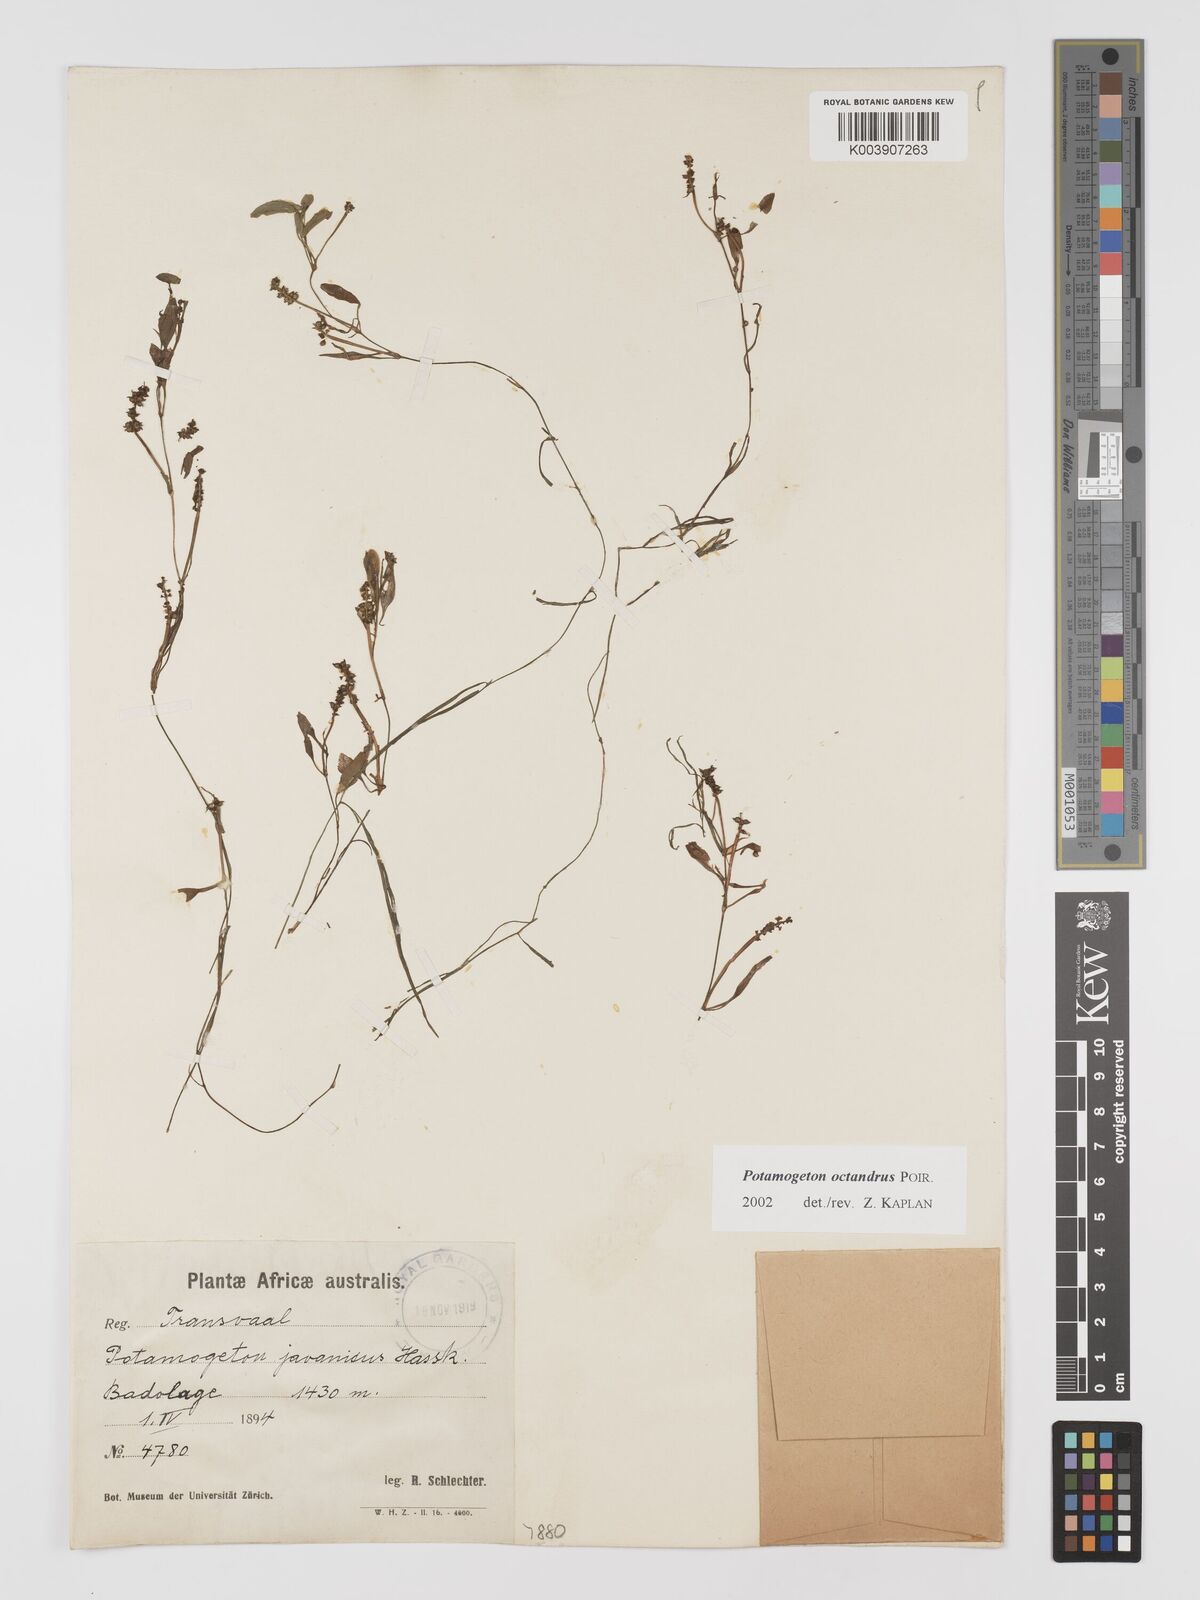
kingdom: Plantae
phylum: Tracheophyta
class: Liliopsida
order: Alismatales
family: Potamogetonaceae
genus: Potamogeton
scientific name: Potamogeton tenuicaulis
